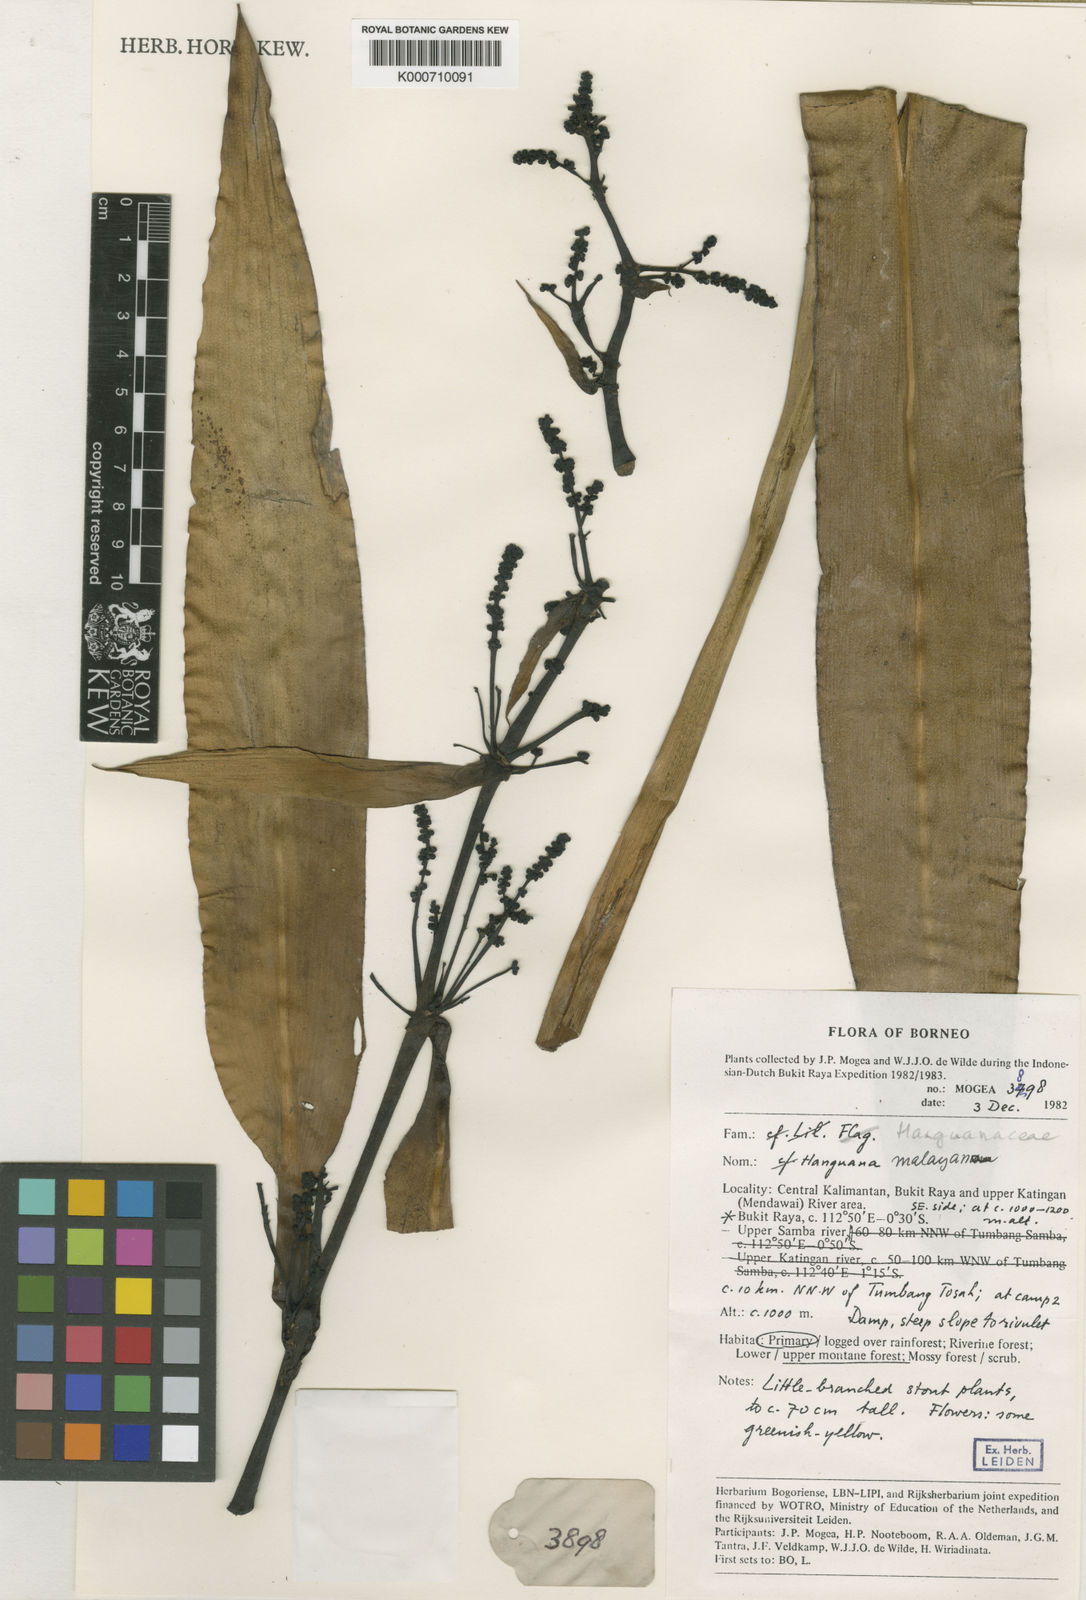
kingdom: Plantae
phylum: Tracheophyta
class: Liliopsida
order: Commelinales
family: Hanguanaceae
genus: Hanguana
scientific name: Hanguana malayana
